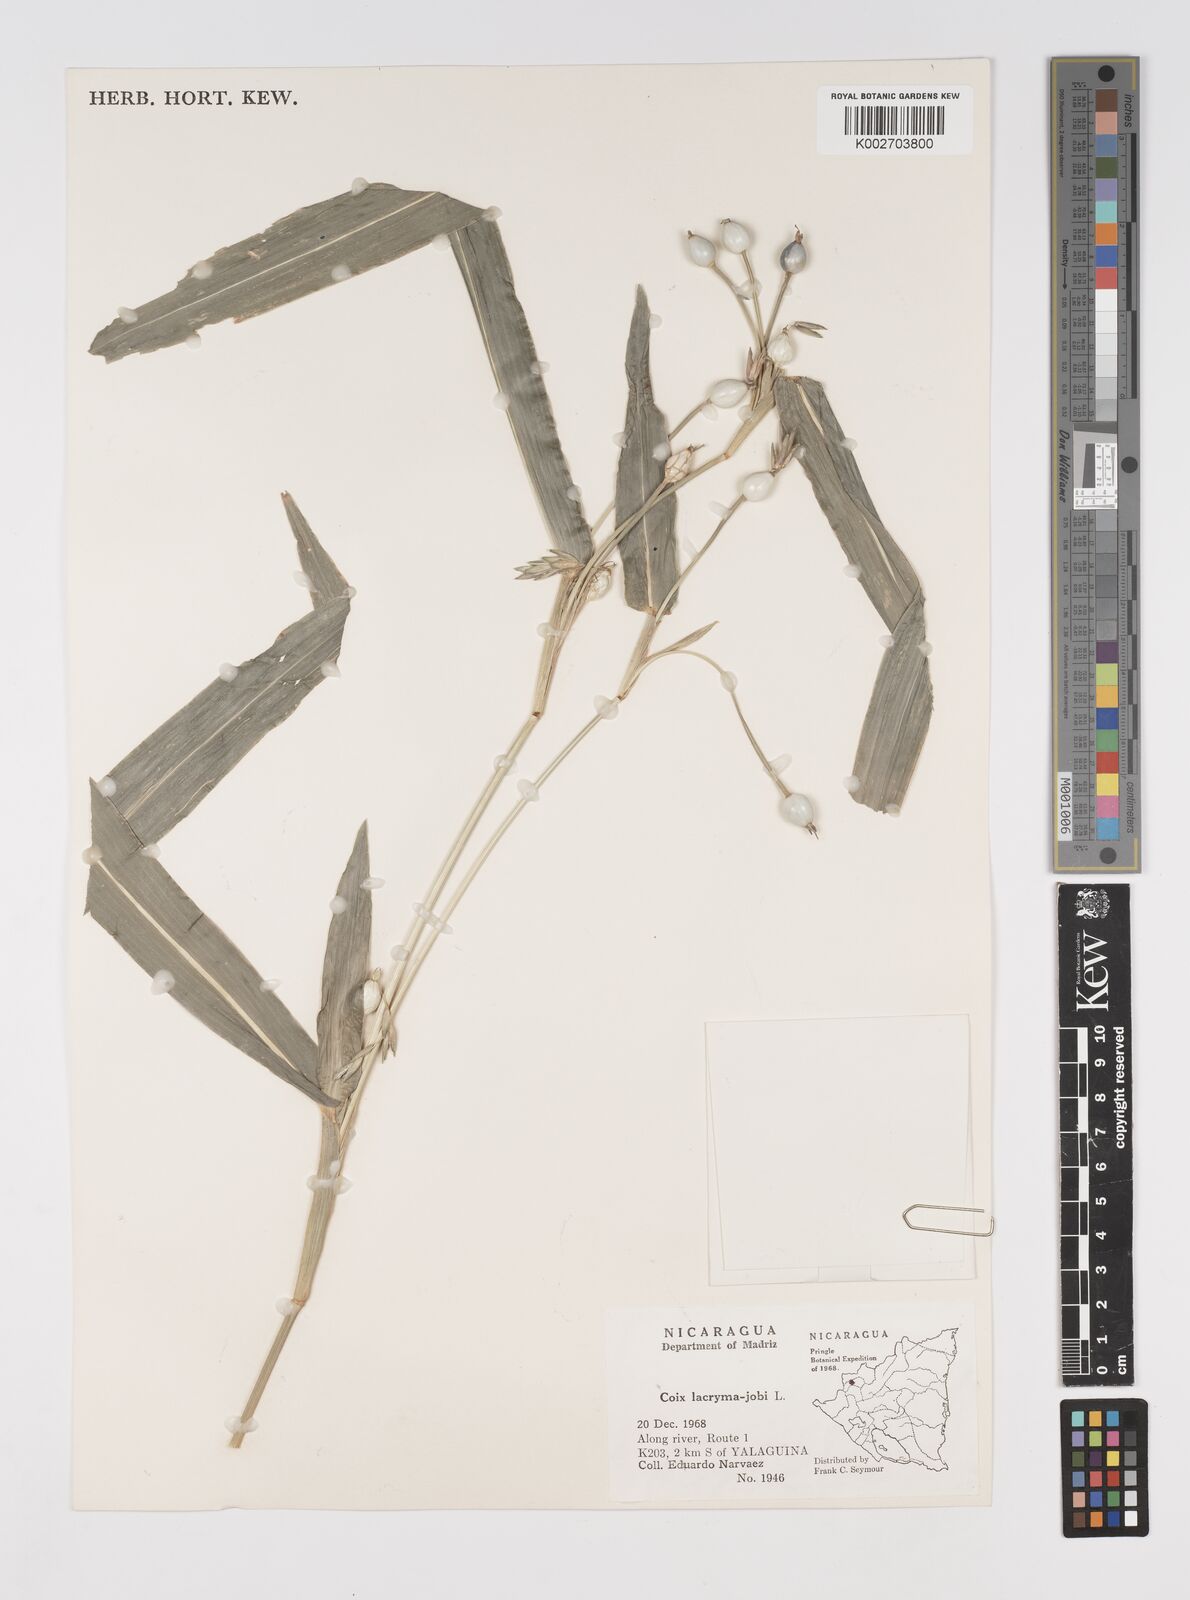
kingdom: Plantae
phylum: Tracheophyta
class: Liliopsida
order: Poales
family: Poaceae
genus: Coix
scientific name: Coix lacryma-jobi
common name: Job's tears
